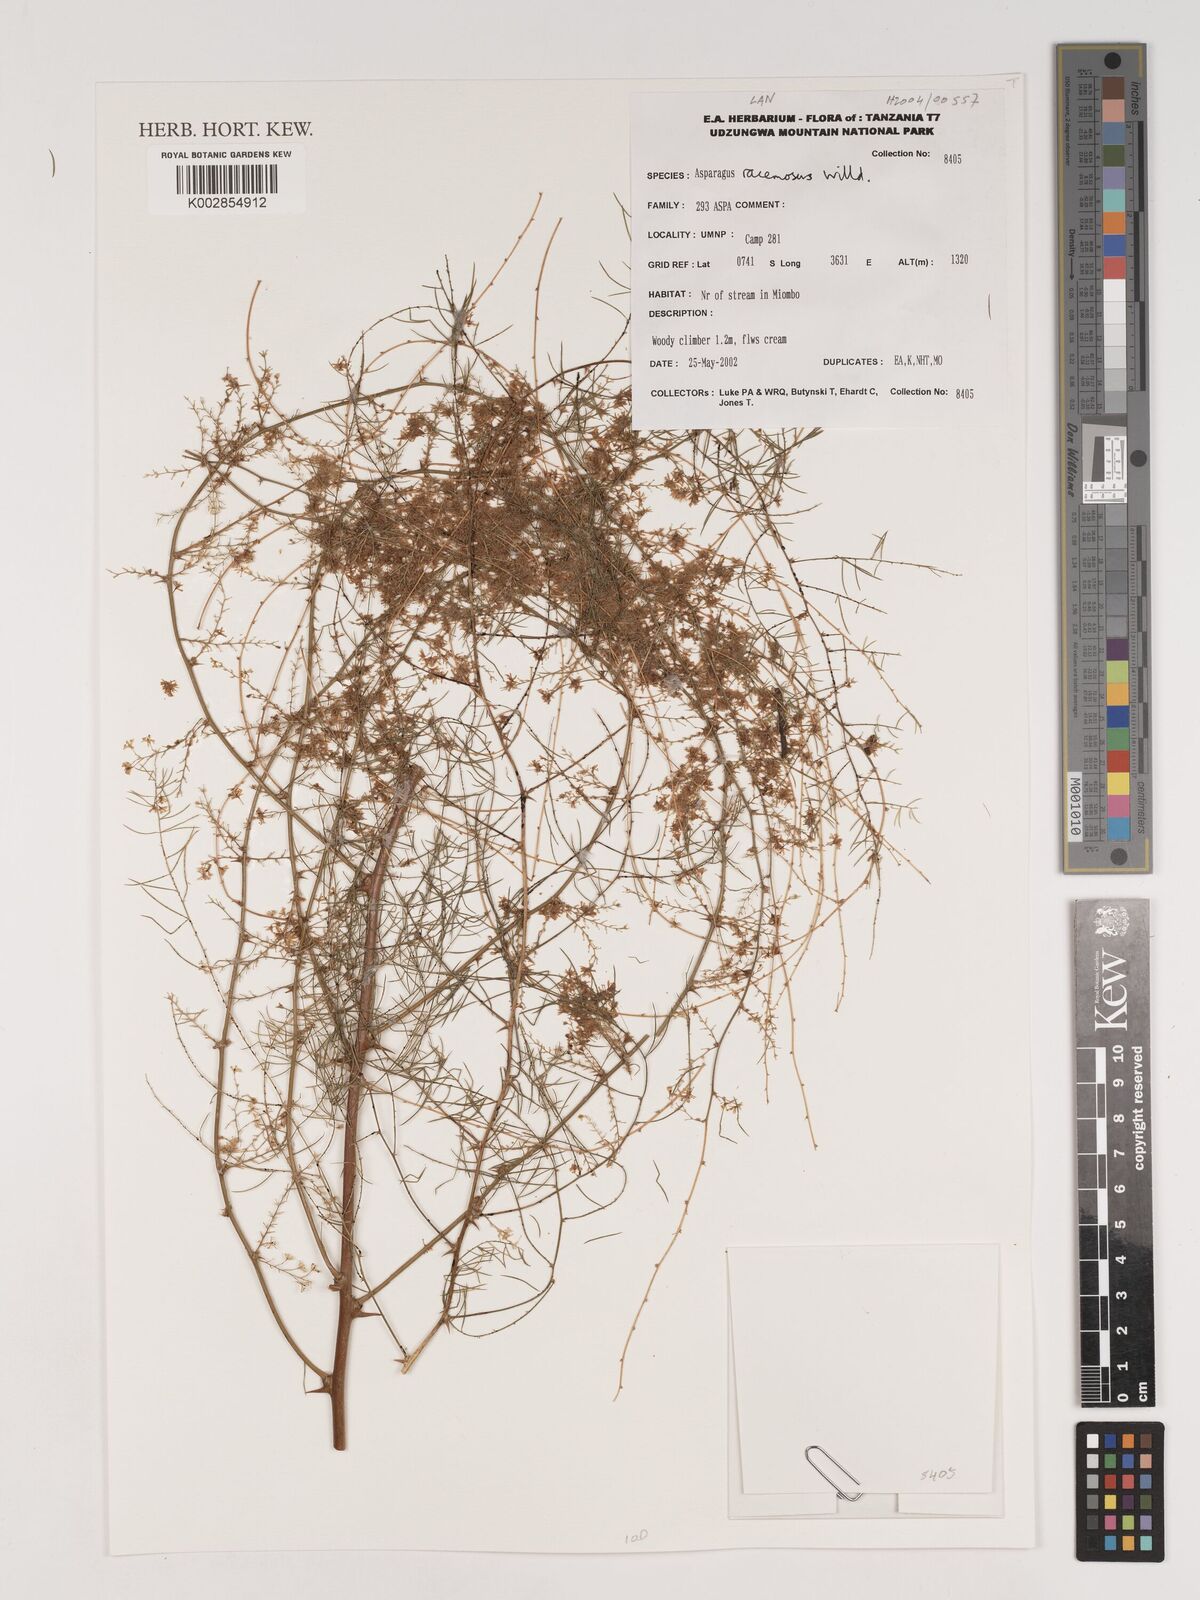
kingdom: Plantae
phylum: Tracheophyta
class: Liliopsida
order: Asparagales
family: Asparagaceae
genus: Asparagus
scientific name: Asparagus racemosus
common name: Asparagus-fern
